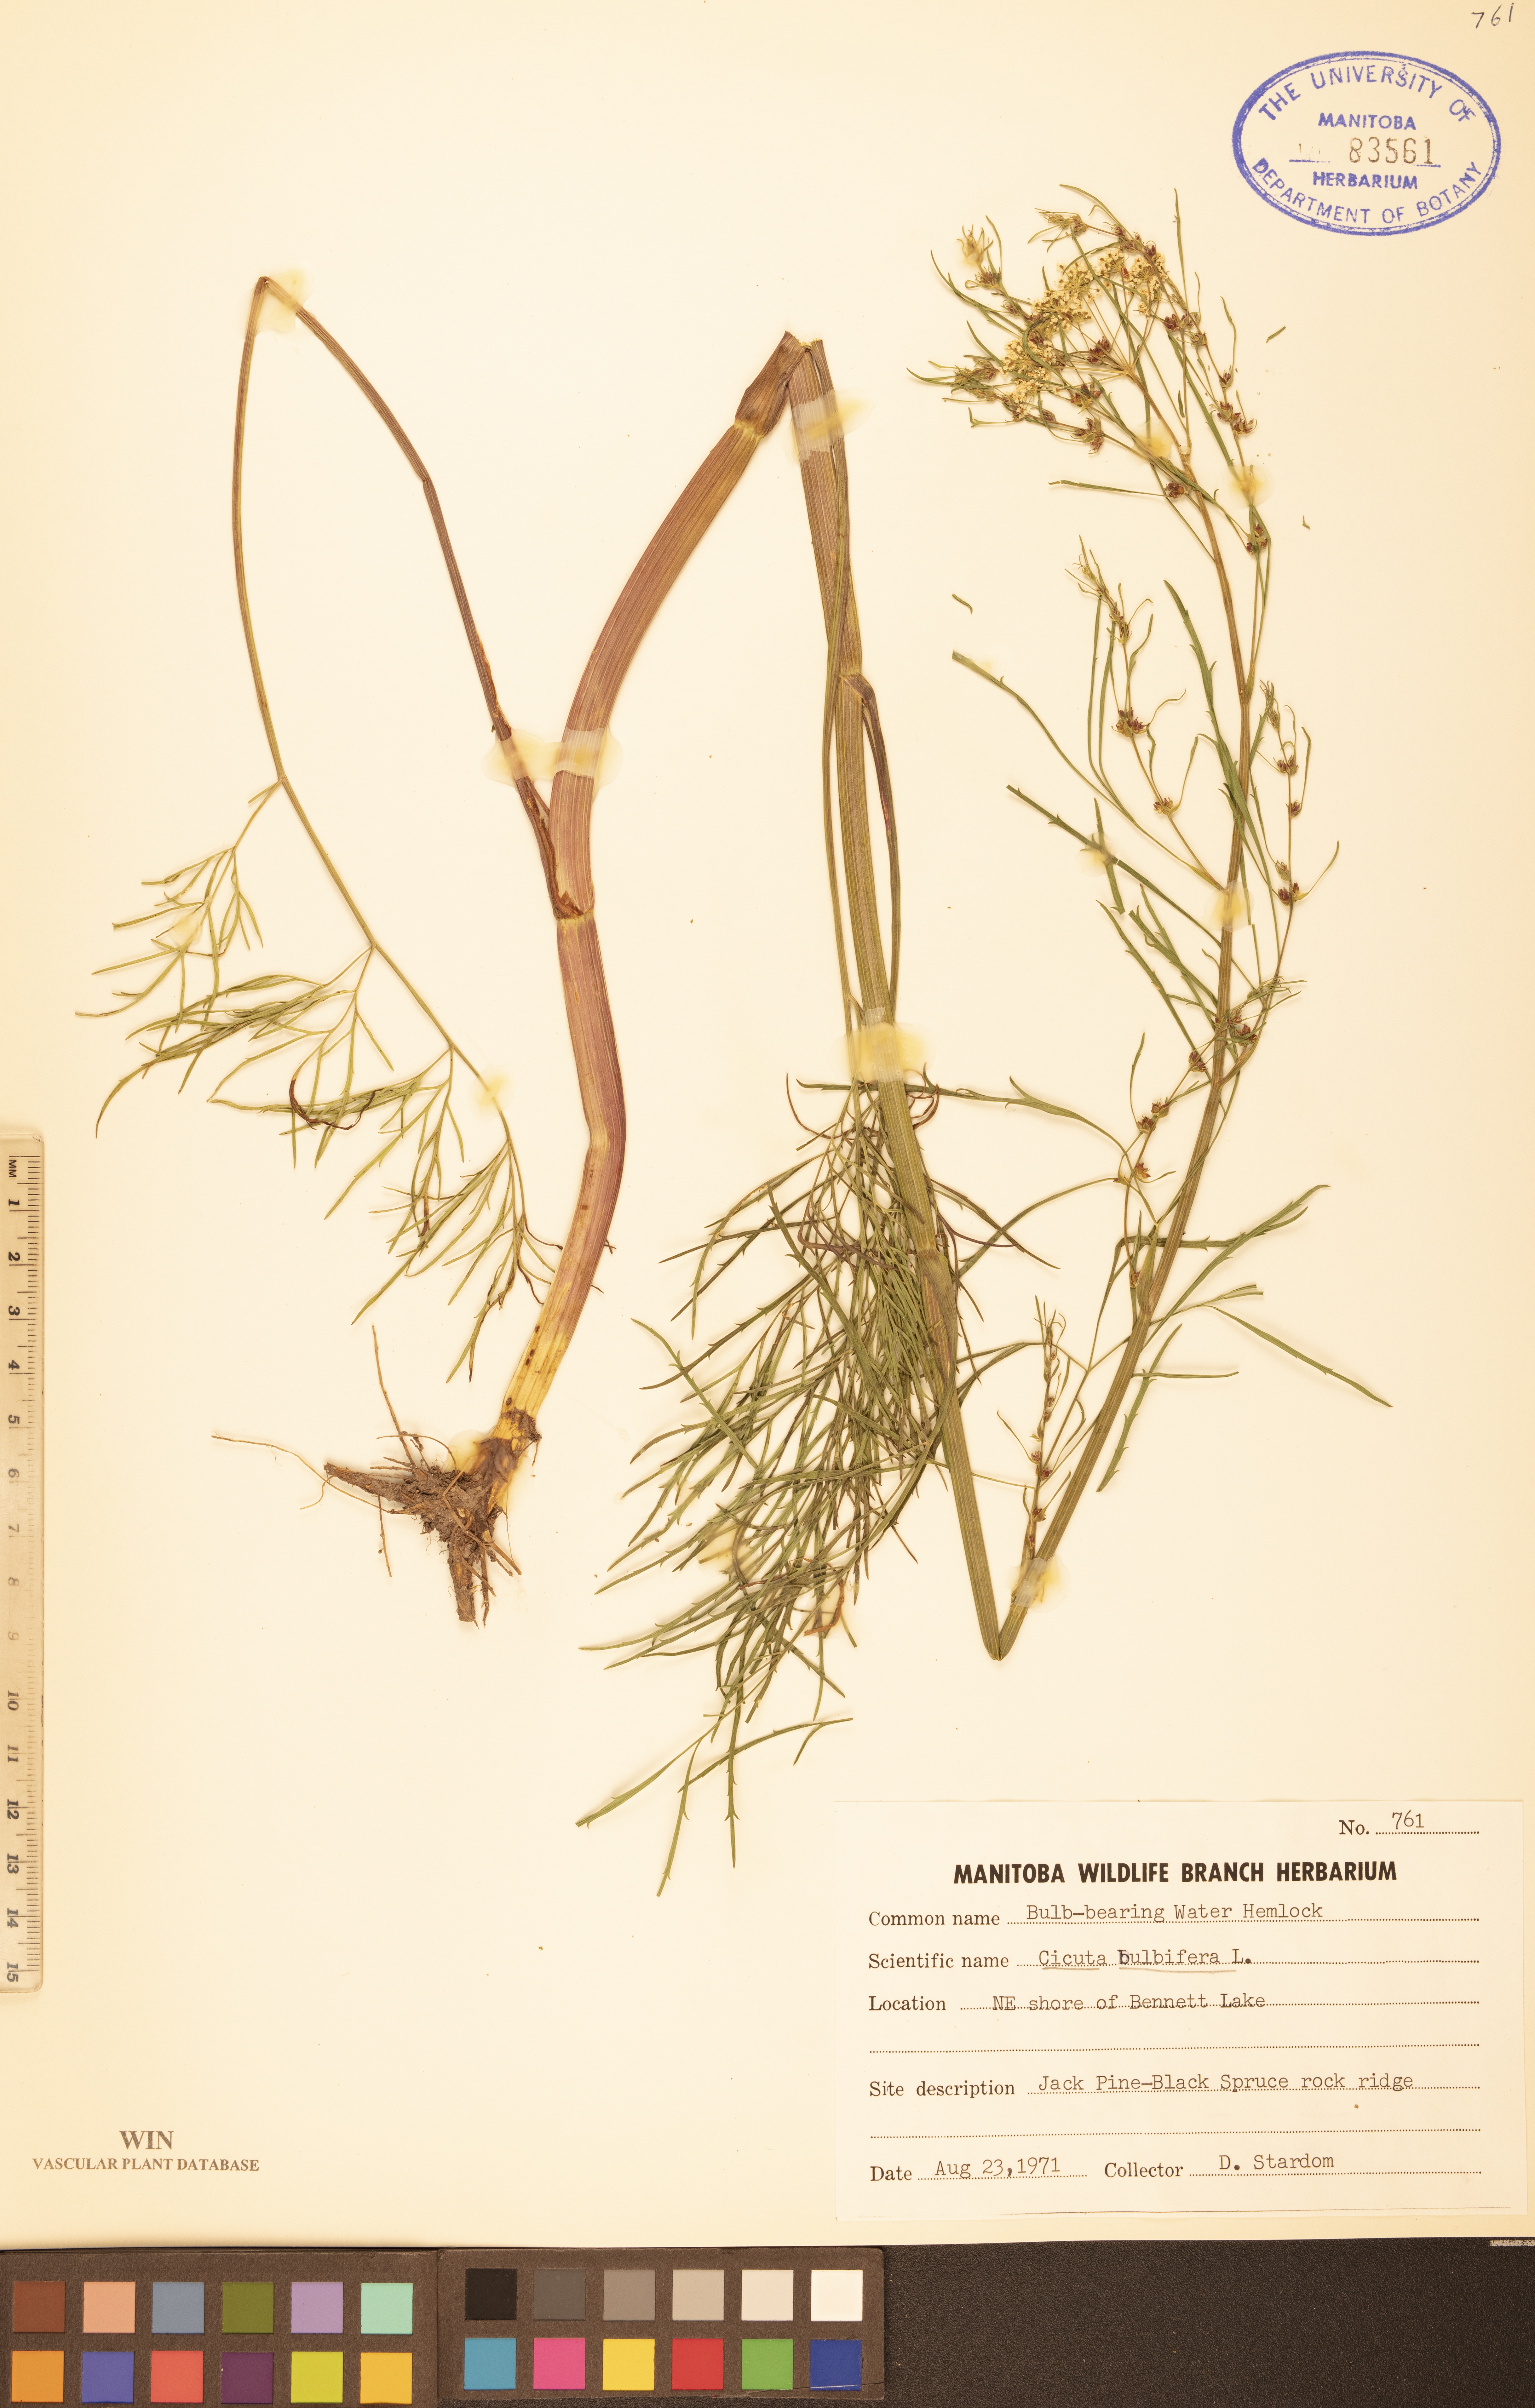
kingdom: Plantae
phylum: Tracheophyta
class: Magnoliopsida
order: Apiales
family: Apiaceae
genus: Cicuta
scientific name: Cicuta bulbifera
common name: Bulb-bearing water-hemlock
